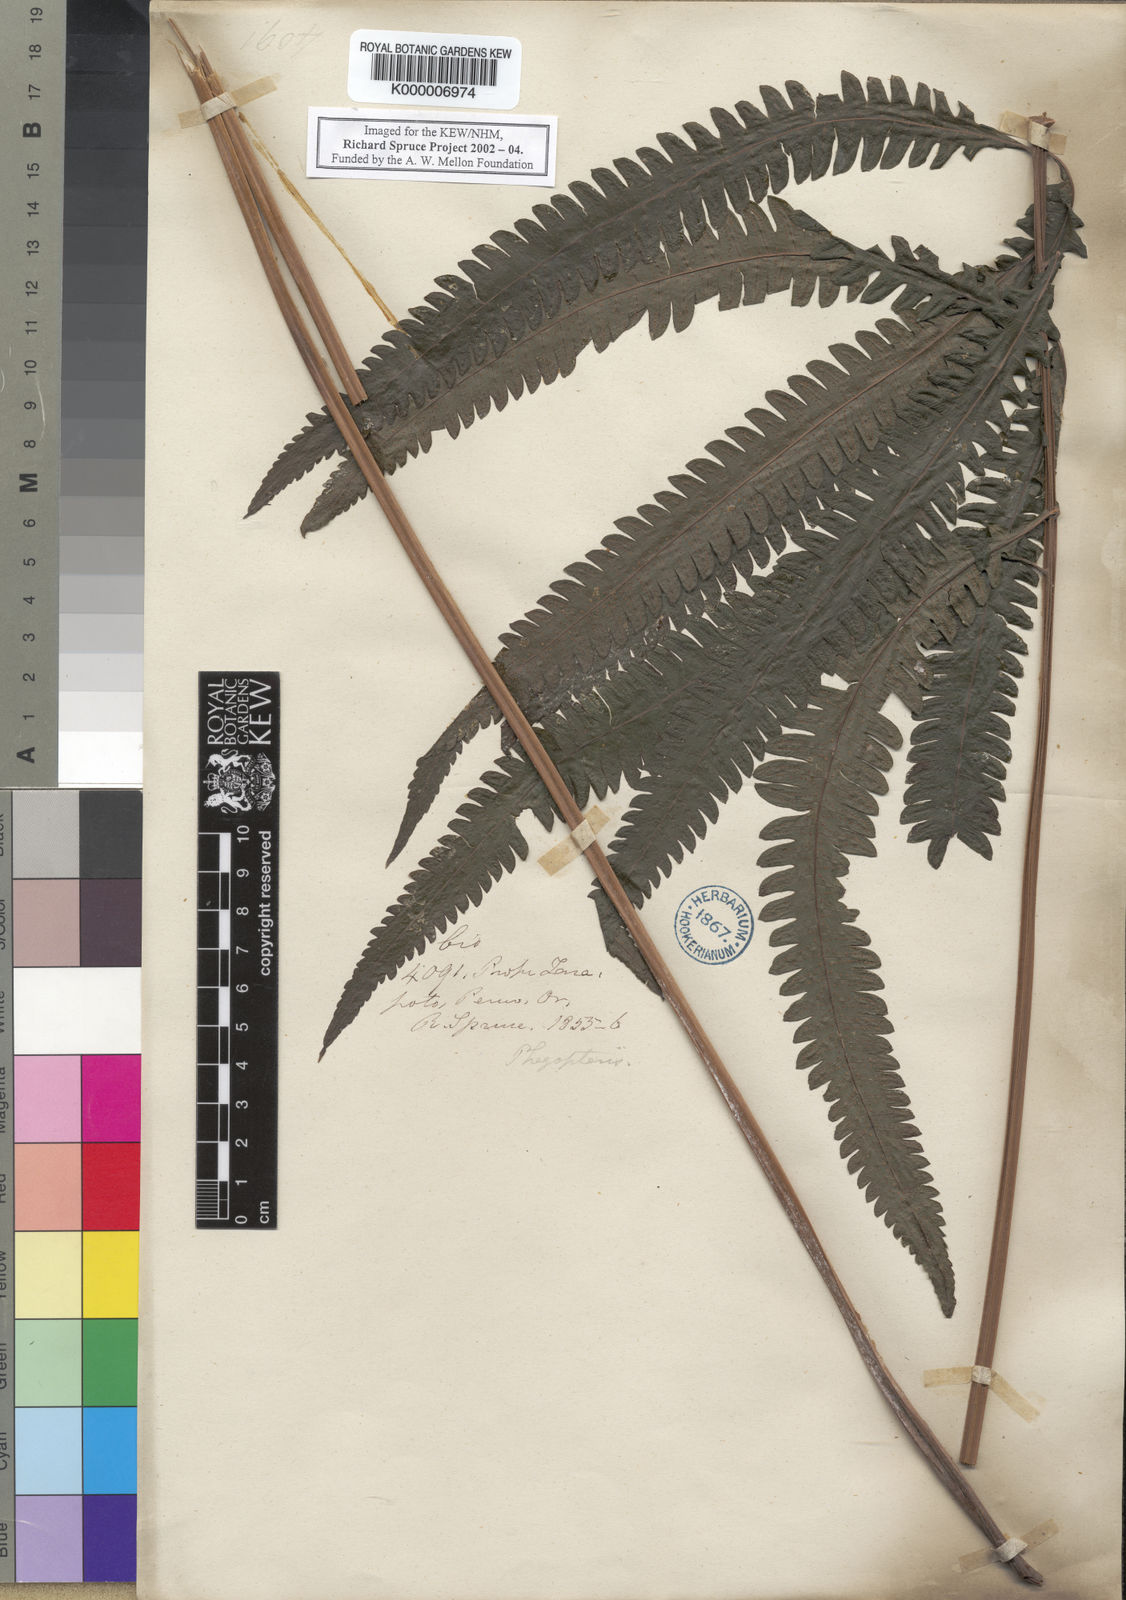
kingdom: Plantae
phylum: Tracheophyta
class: Polypodiopsida
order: Polypodiales
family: Thelypteridaceae
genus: Goniopteris
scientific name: Goniopteris tetragona
